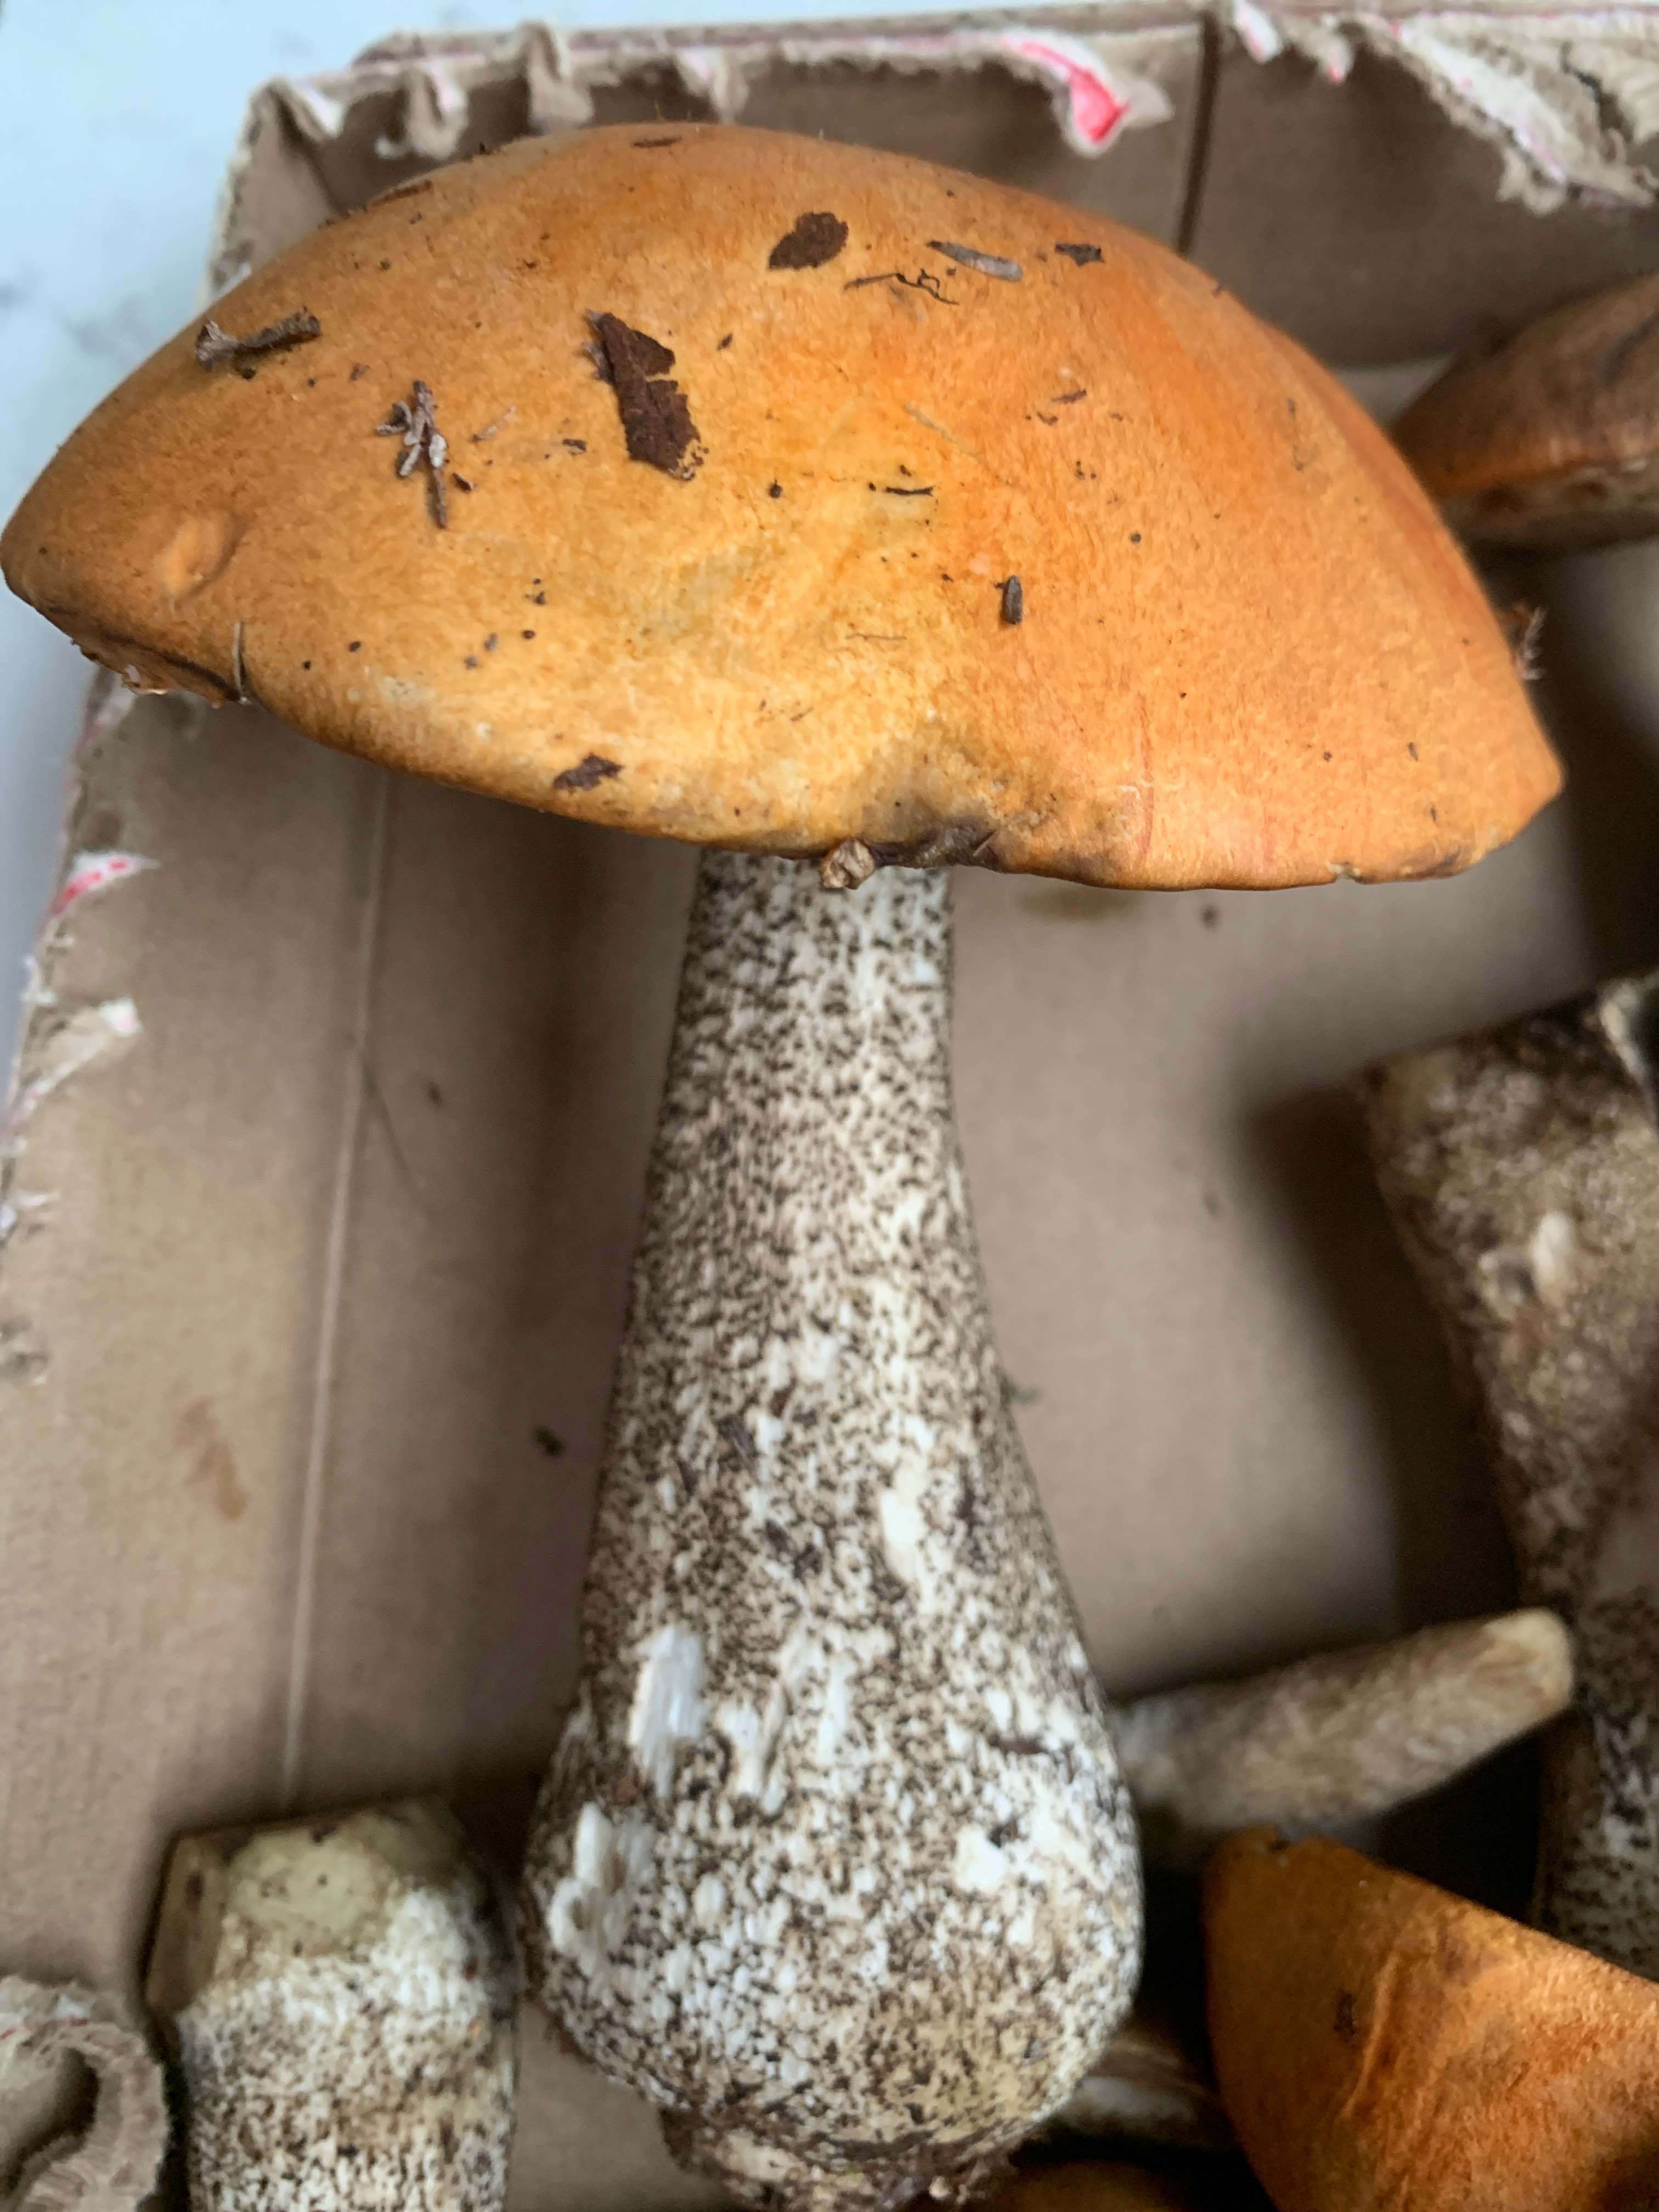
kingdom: Fungi
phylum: Basidiomycota
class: Agaricomycetes
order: Boletales
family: Boletaceae
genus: Leccinum
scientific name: Leccinum versipelle
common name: orange skælrørhat
